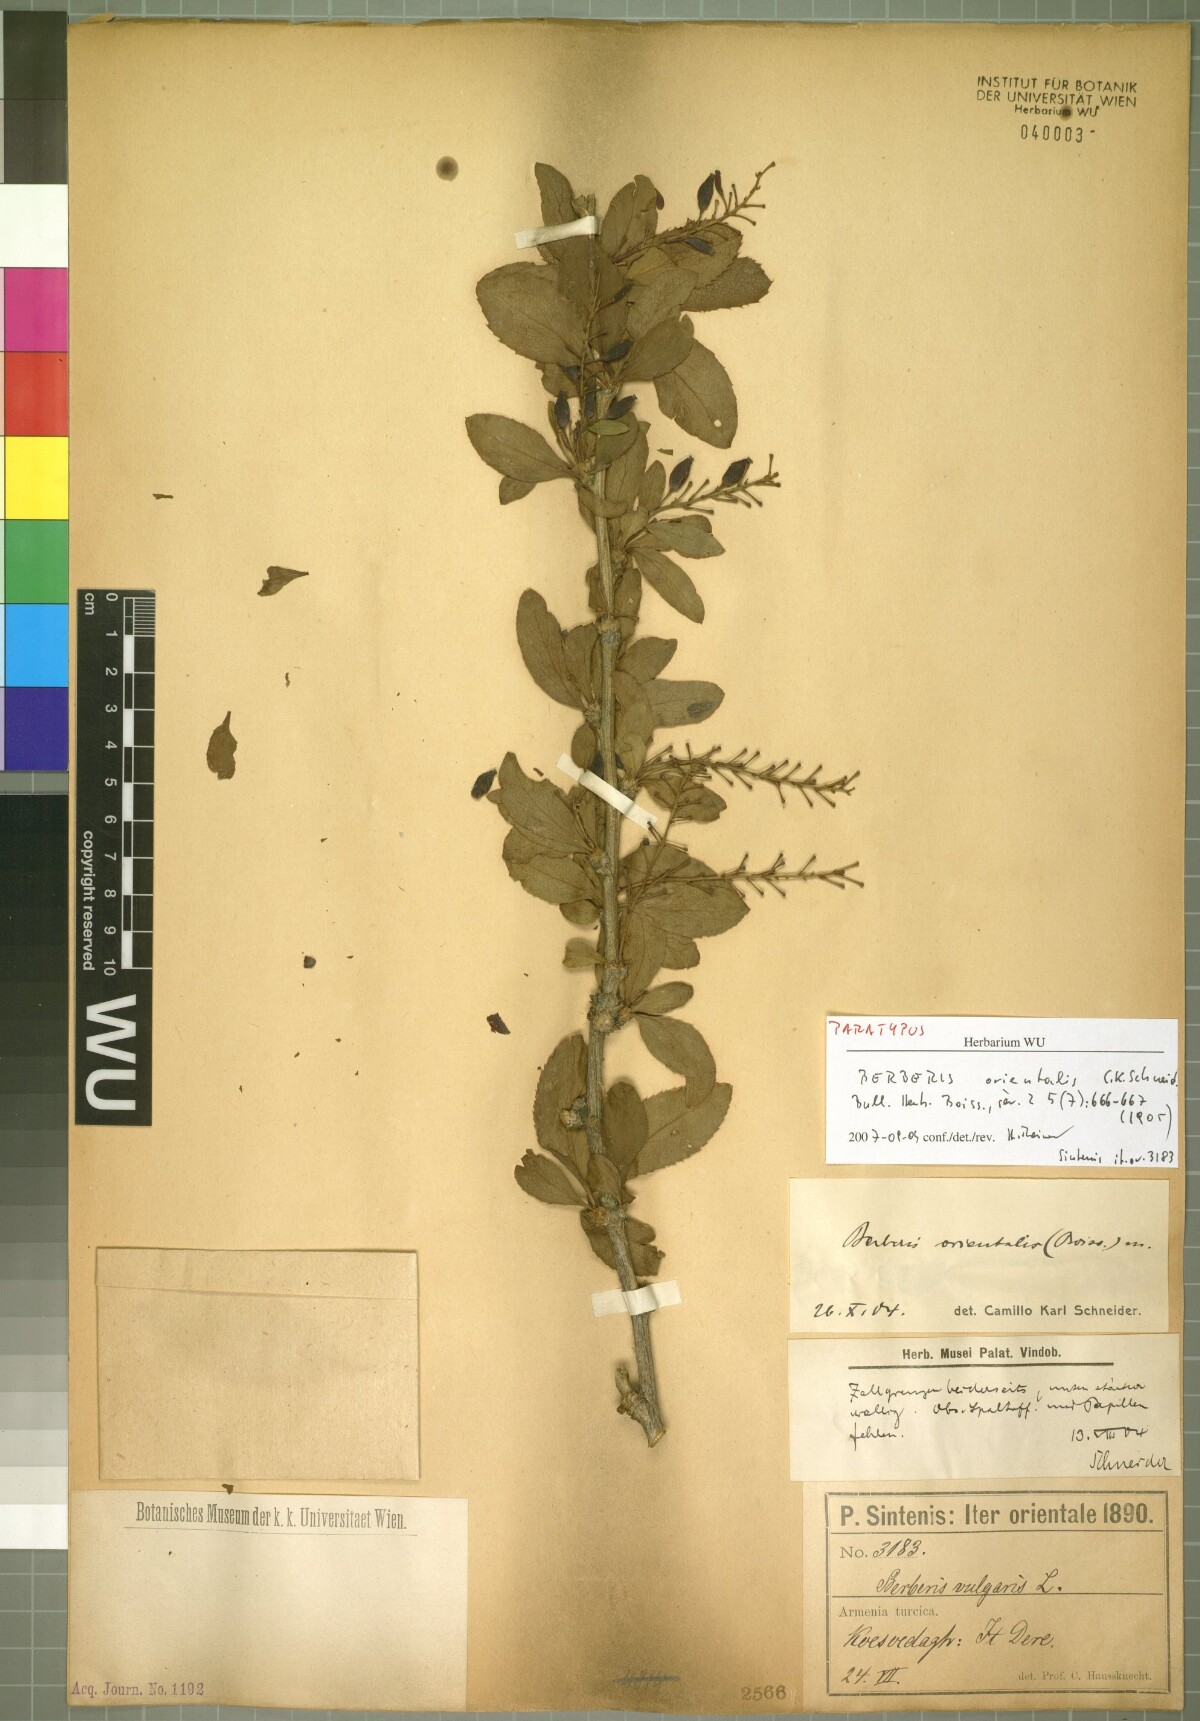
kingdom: Plantae
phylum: Tracheophyta
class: Magnoliopsida
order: Ranunculales
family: Berberidaceae
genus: Berberis
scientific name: Berberis vulgaris
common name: Barberry
